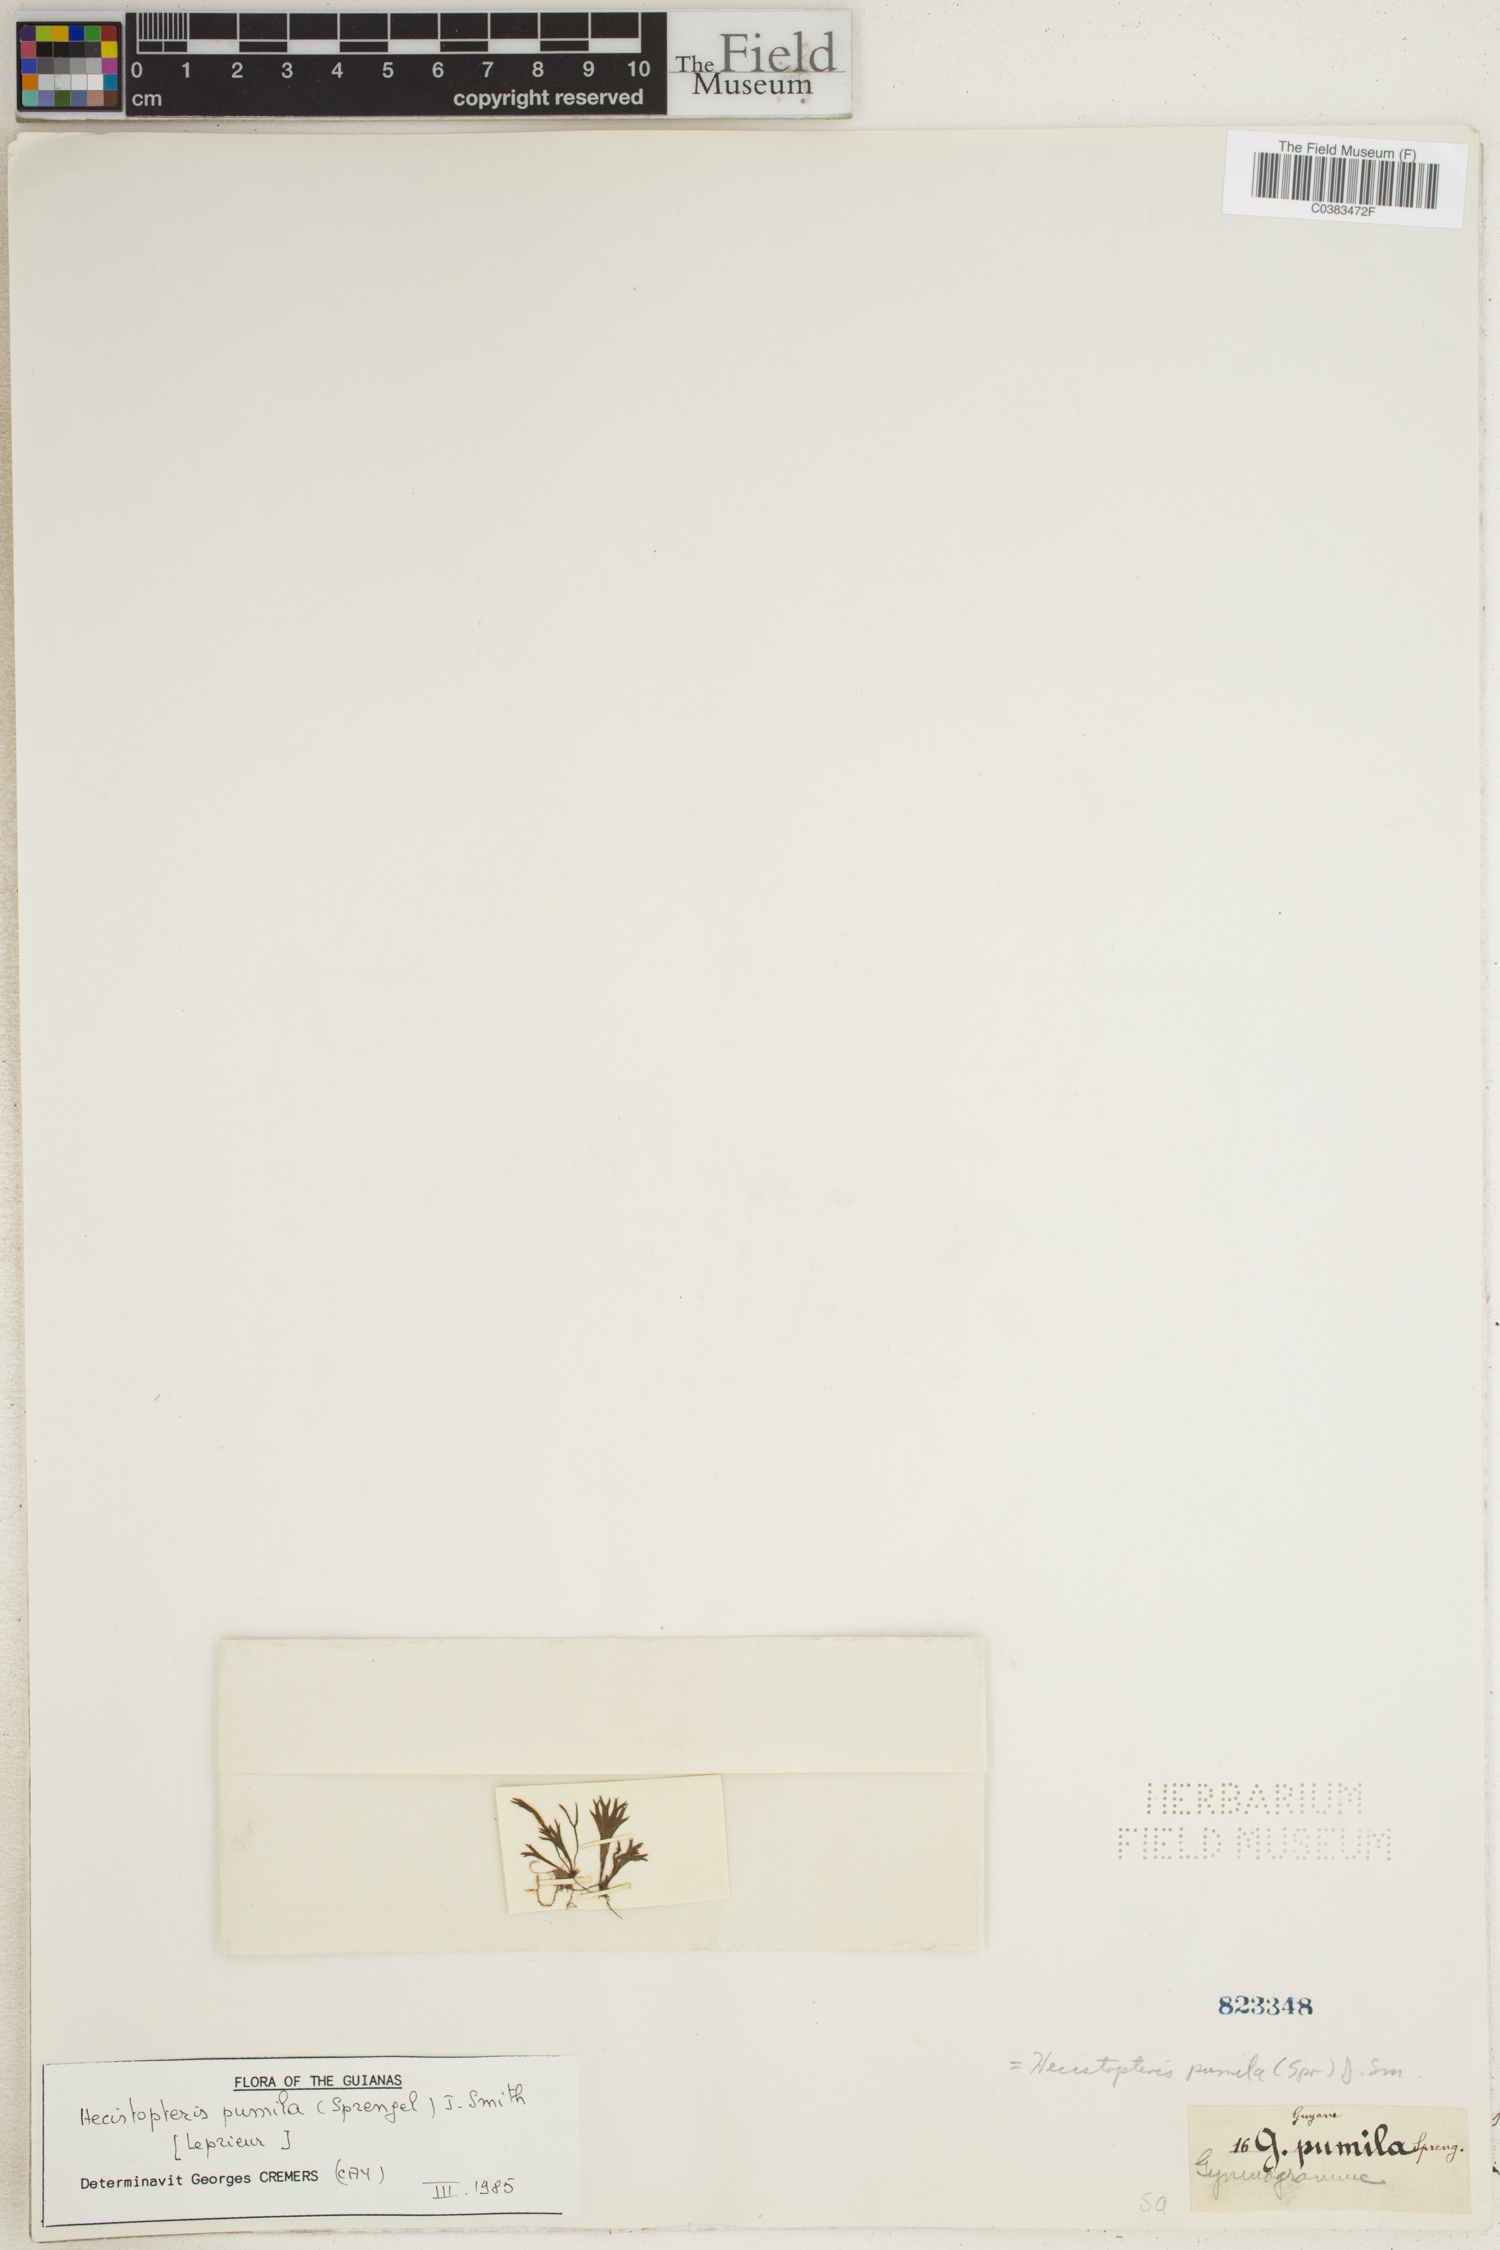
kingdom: Plantae
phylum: Tracheophyta
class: Polypodiopsida
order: Polypodiales
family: Pteridaceae
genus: Hecistopteris
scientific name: Hecistopteris pumila
